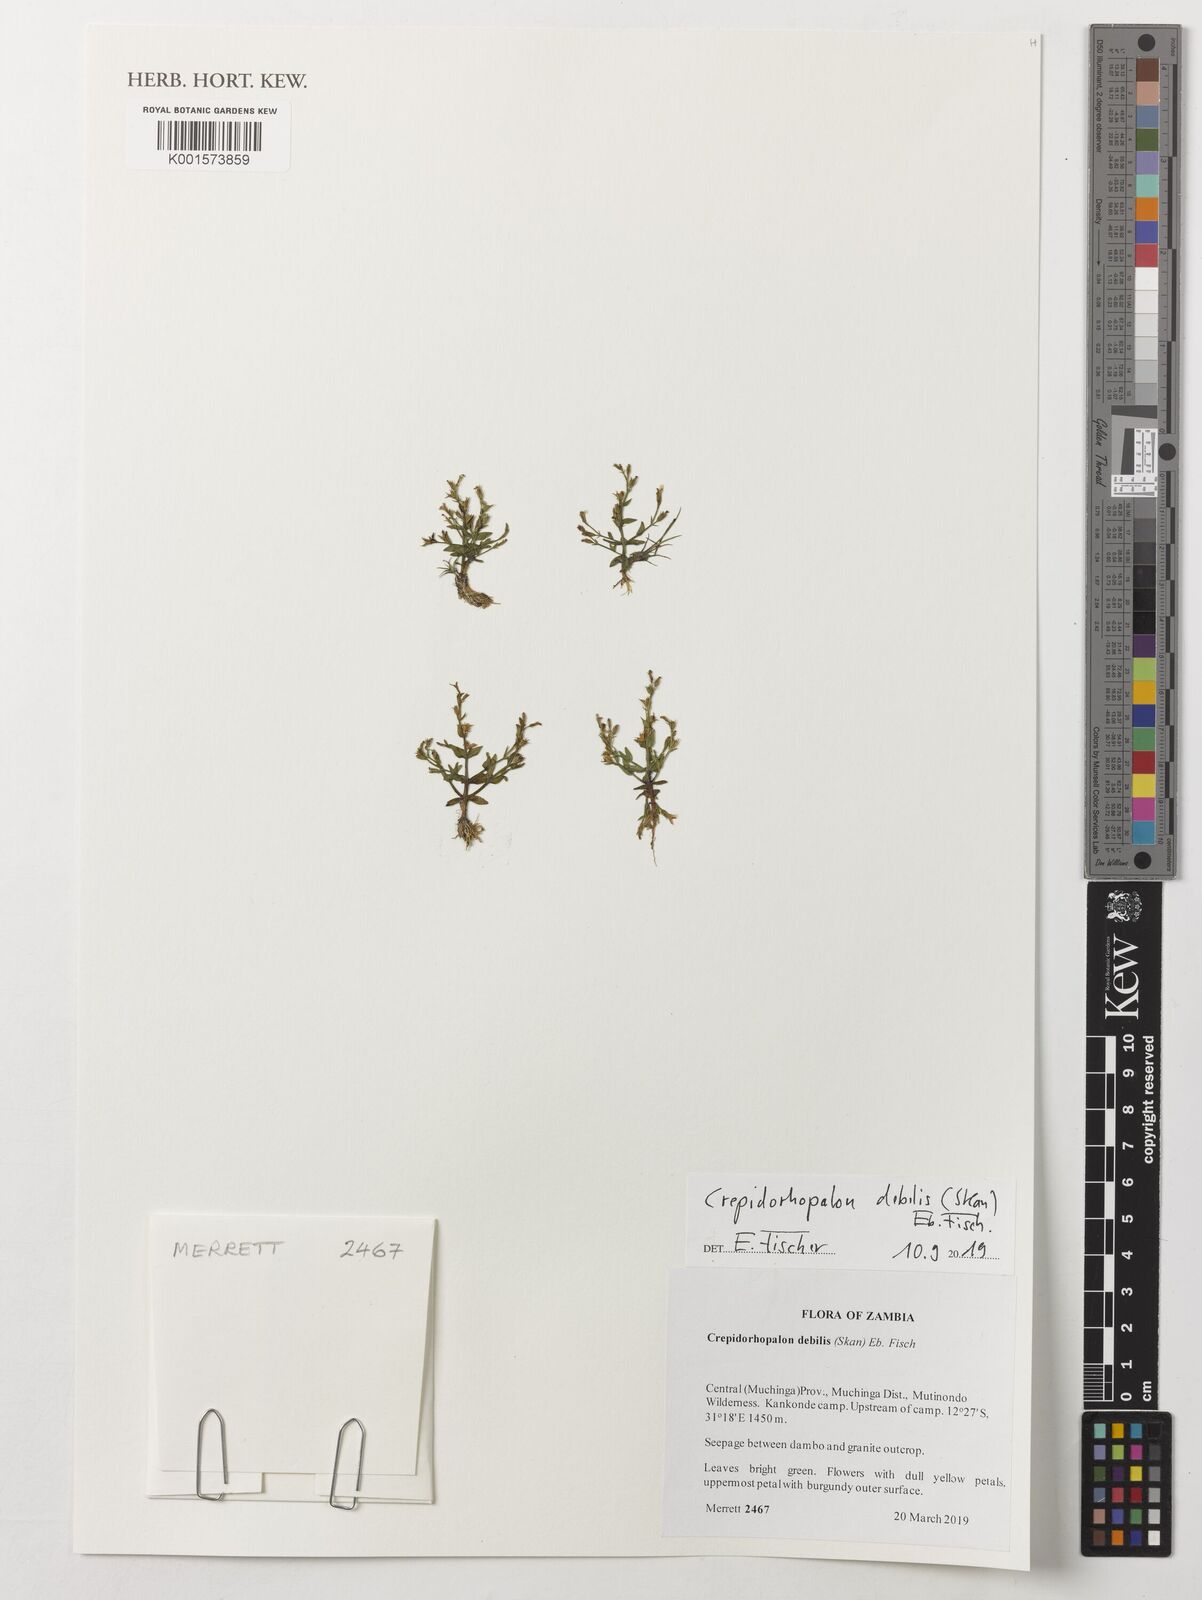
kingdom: Plantae
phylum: Tracheophyta
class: Magnoliopsida
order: Lamiales
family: Linderniaceae
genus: Crepidorhopalon
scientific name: Crepidorhopalon debilis
